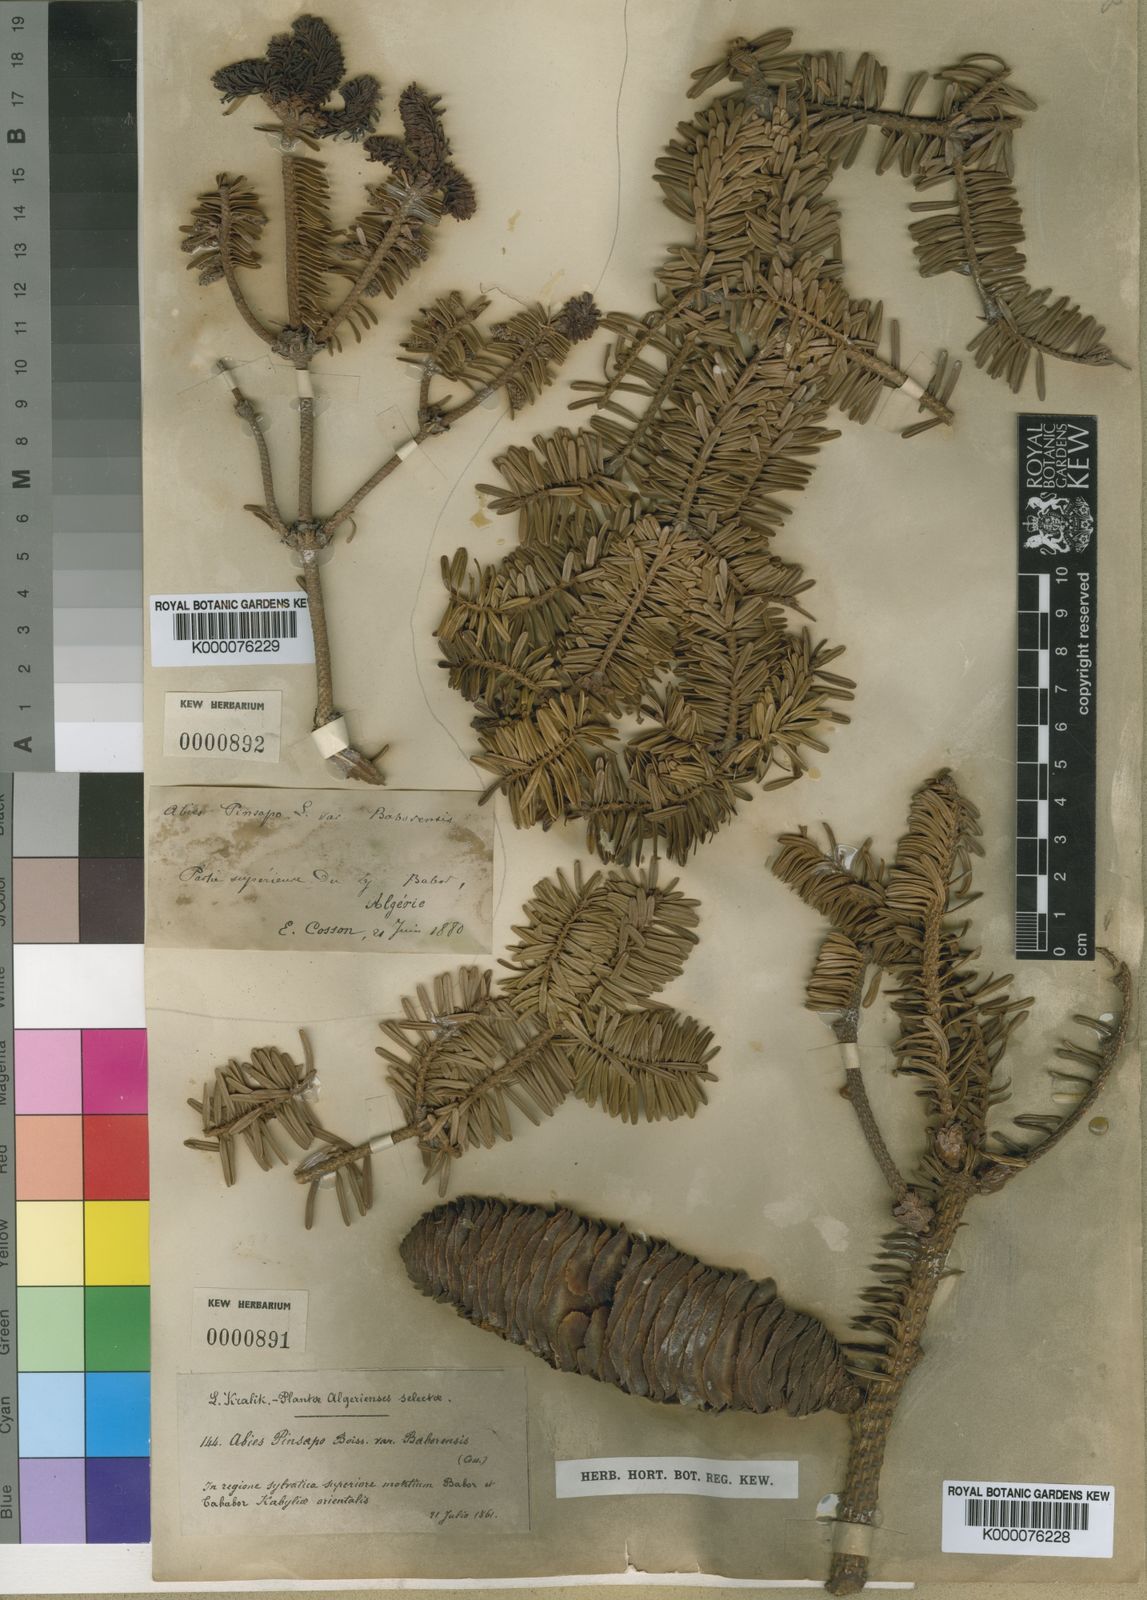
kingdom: Plantae
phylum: Tracheophyta
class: Pinopsida
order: Pinales
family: Pinaceae
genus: Abies
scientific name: Abies
